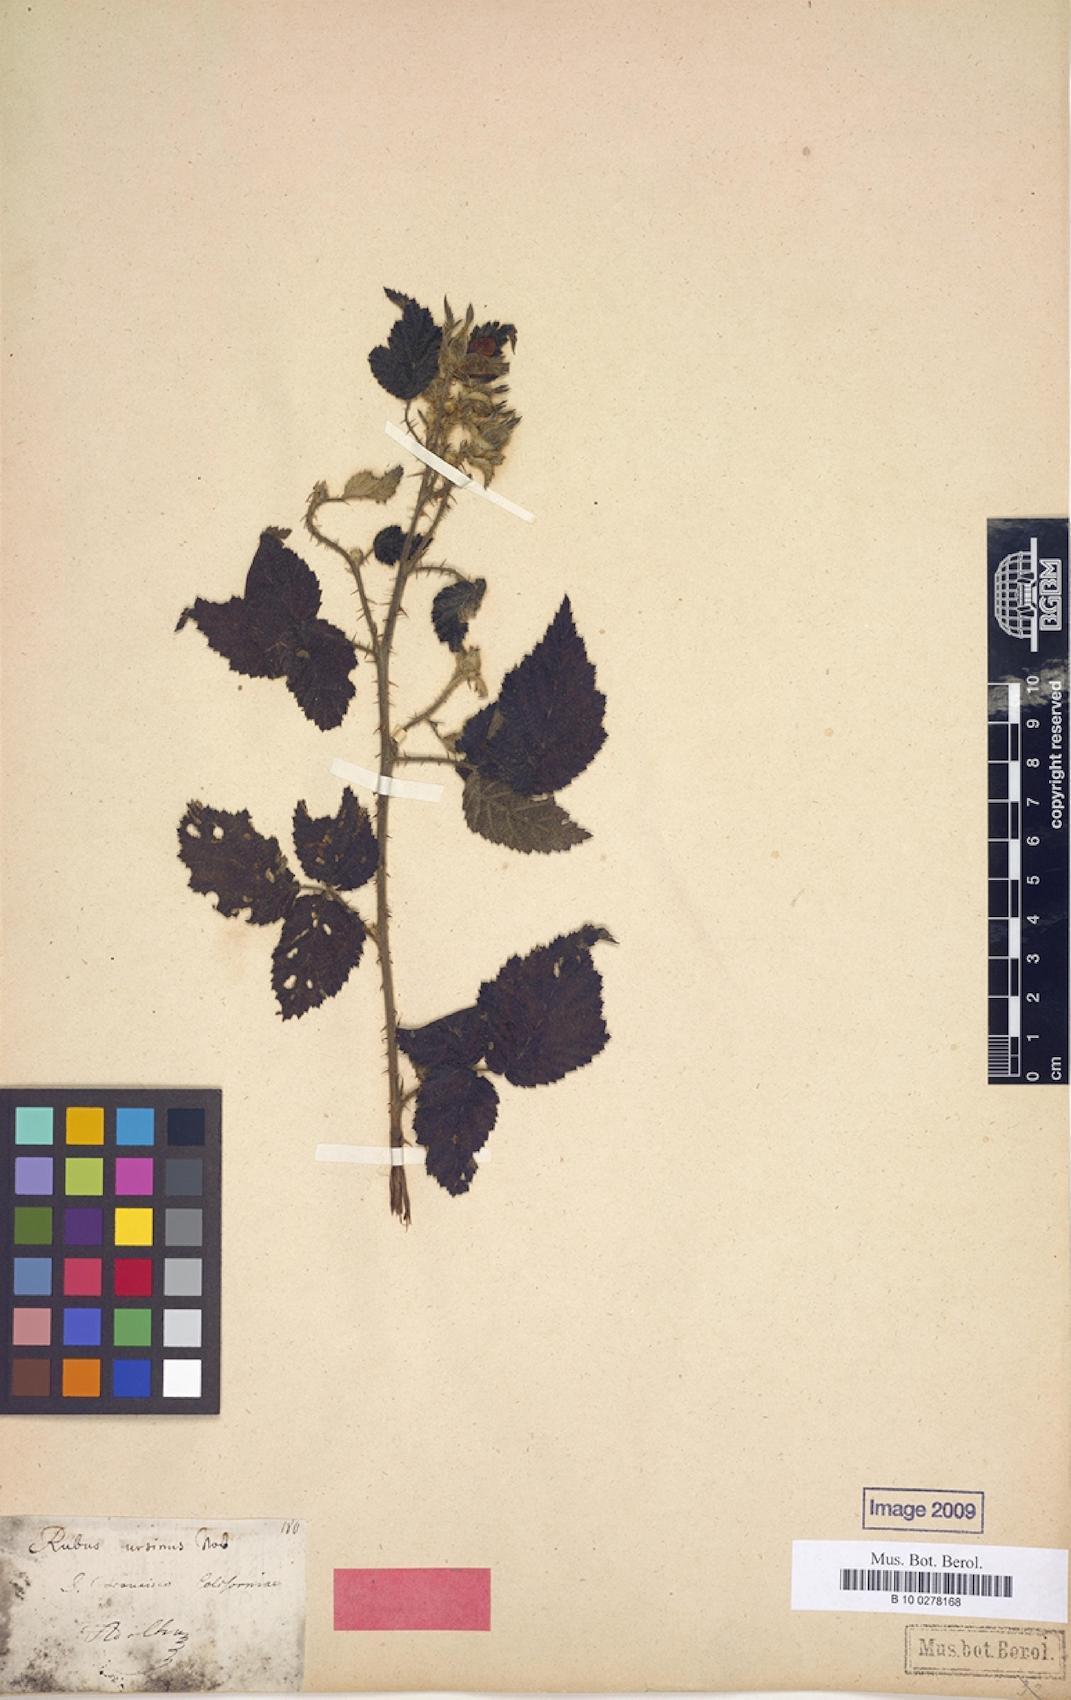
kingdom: Plantae
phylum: Tracheophyta
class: Magnoliopsida
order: Rosales
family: Rosaceae
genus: Rubus
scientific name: Rubus ursinus
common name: Pacific blackberry
